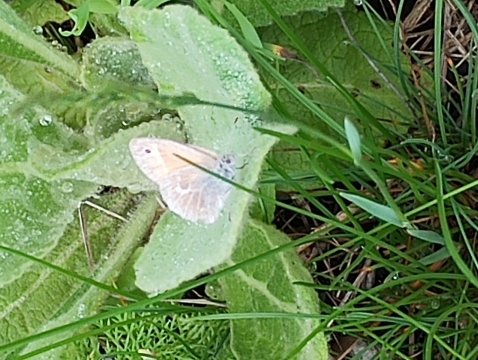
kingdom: Animalia
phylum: Arthropoda
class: Insecta
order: Lepidoptera
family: Nymphalidae
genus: Coenonympha
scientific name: Coenonympha california
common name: California Ringlet
